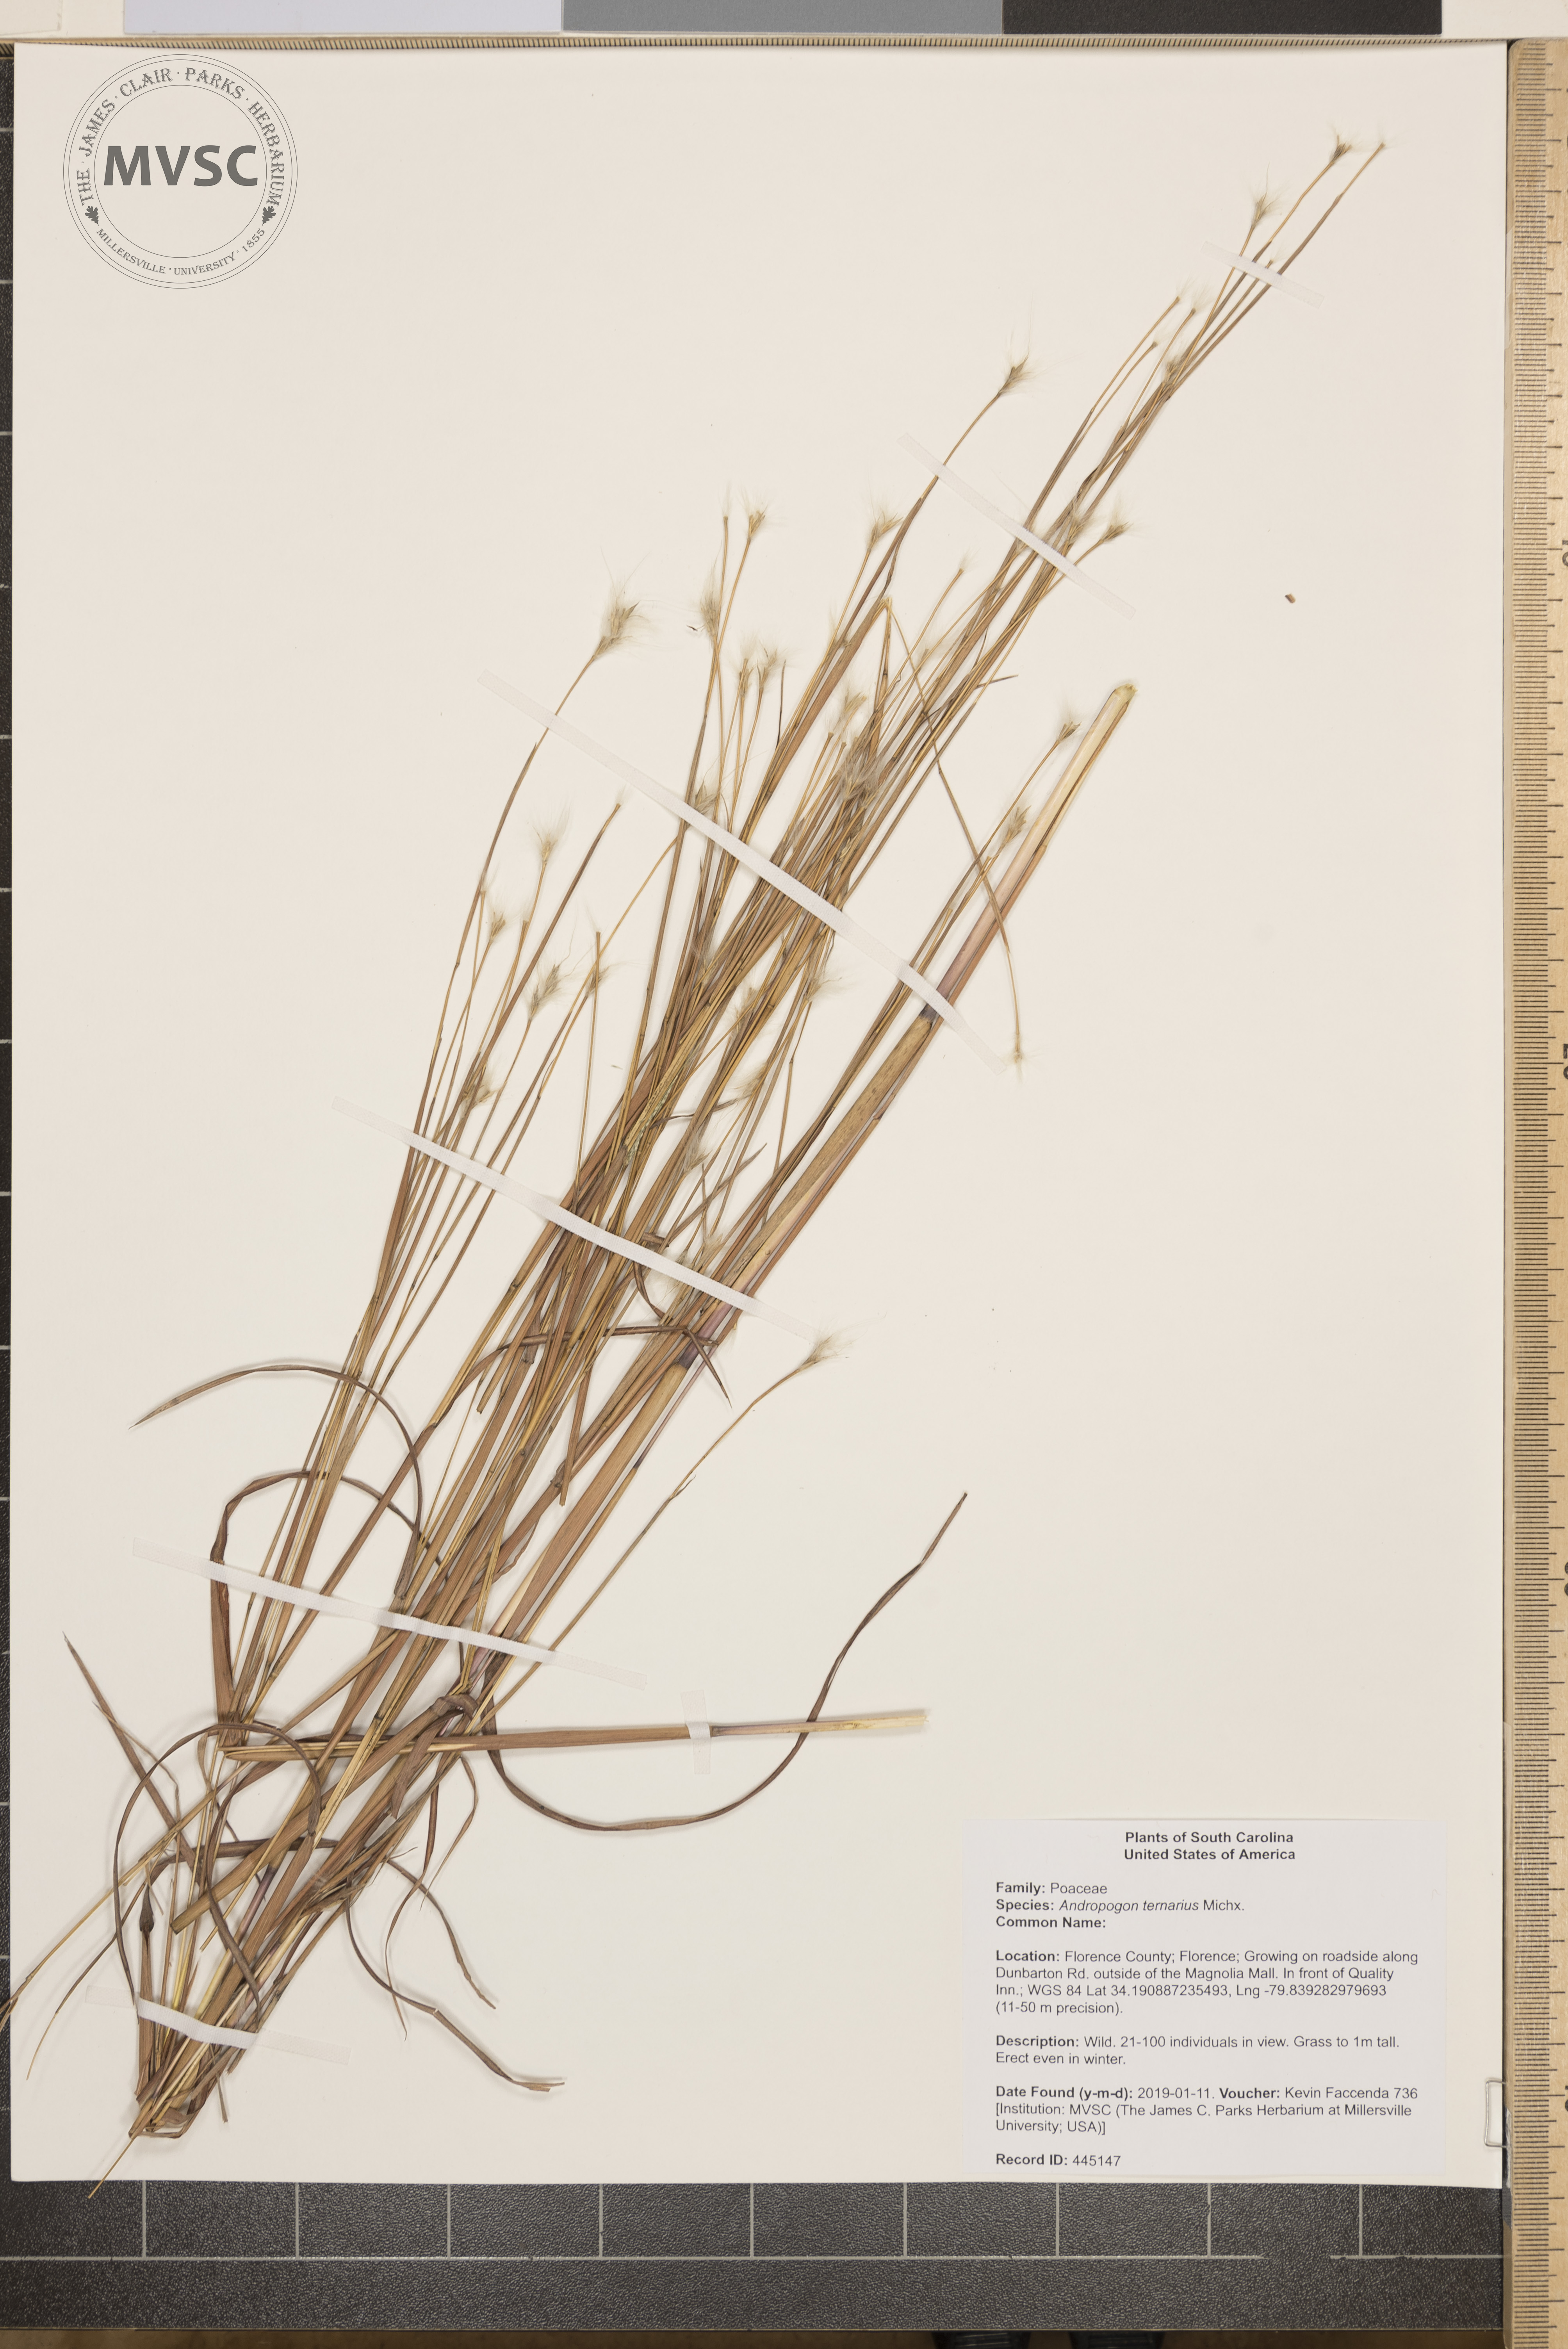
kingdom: Plantae
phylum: Tracheophyta
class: Liliopsida
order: Poales
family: Poaceae
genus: Andropogon
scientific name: Andropogon ternarius
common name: Split bluestem
